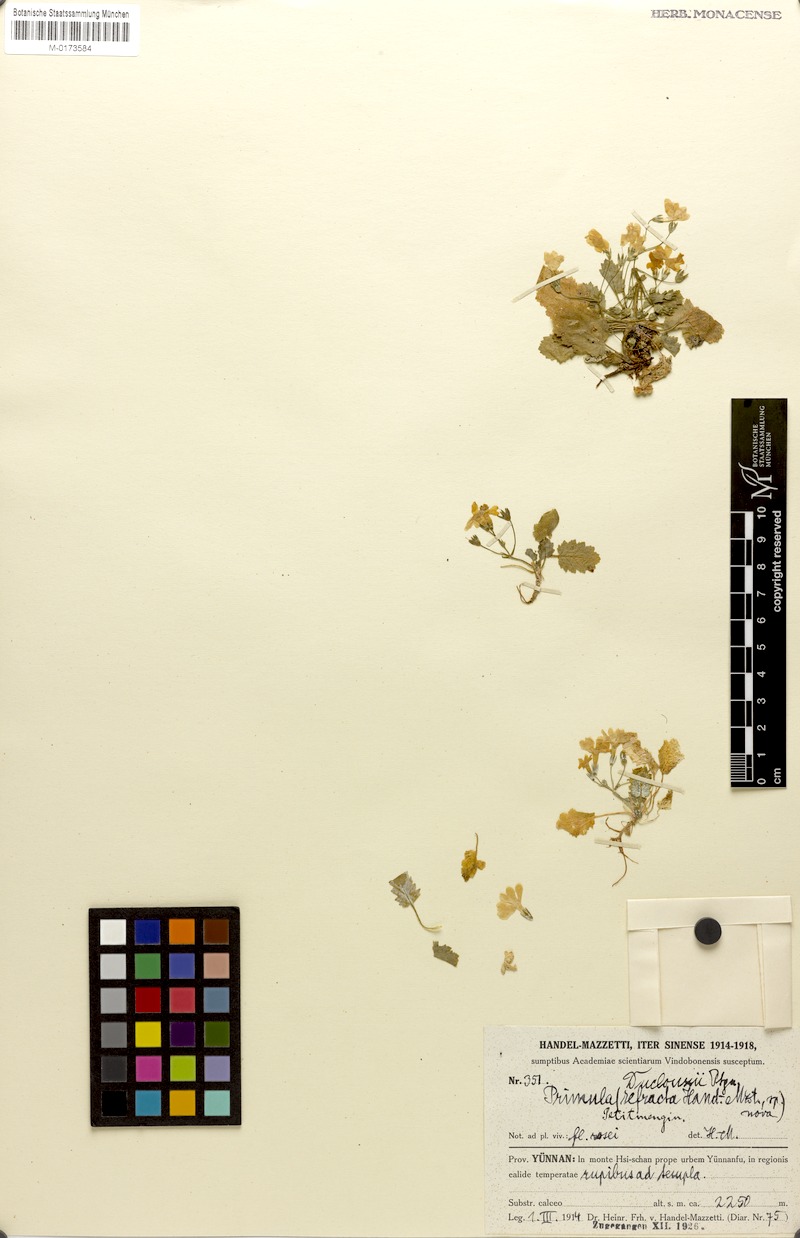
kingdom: Plantae
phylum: Tracheophyta
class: Magnoliopsida
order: Ericales
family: Primulaceae
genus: Primula
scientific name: Primula duclouxii
